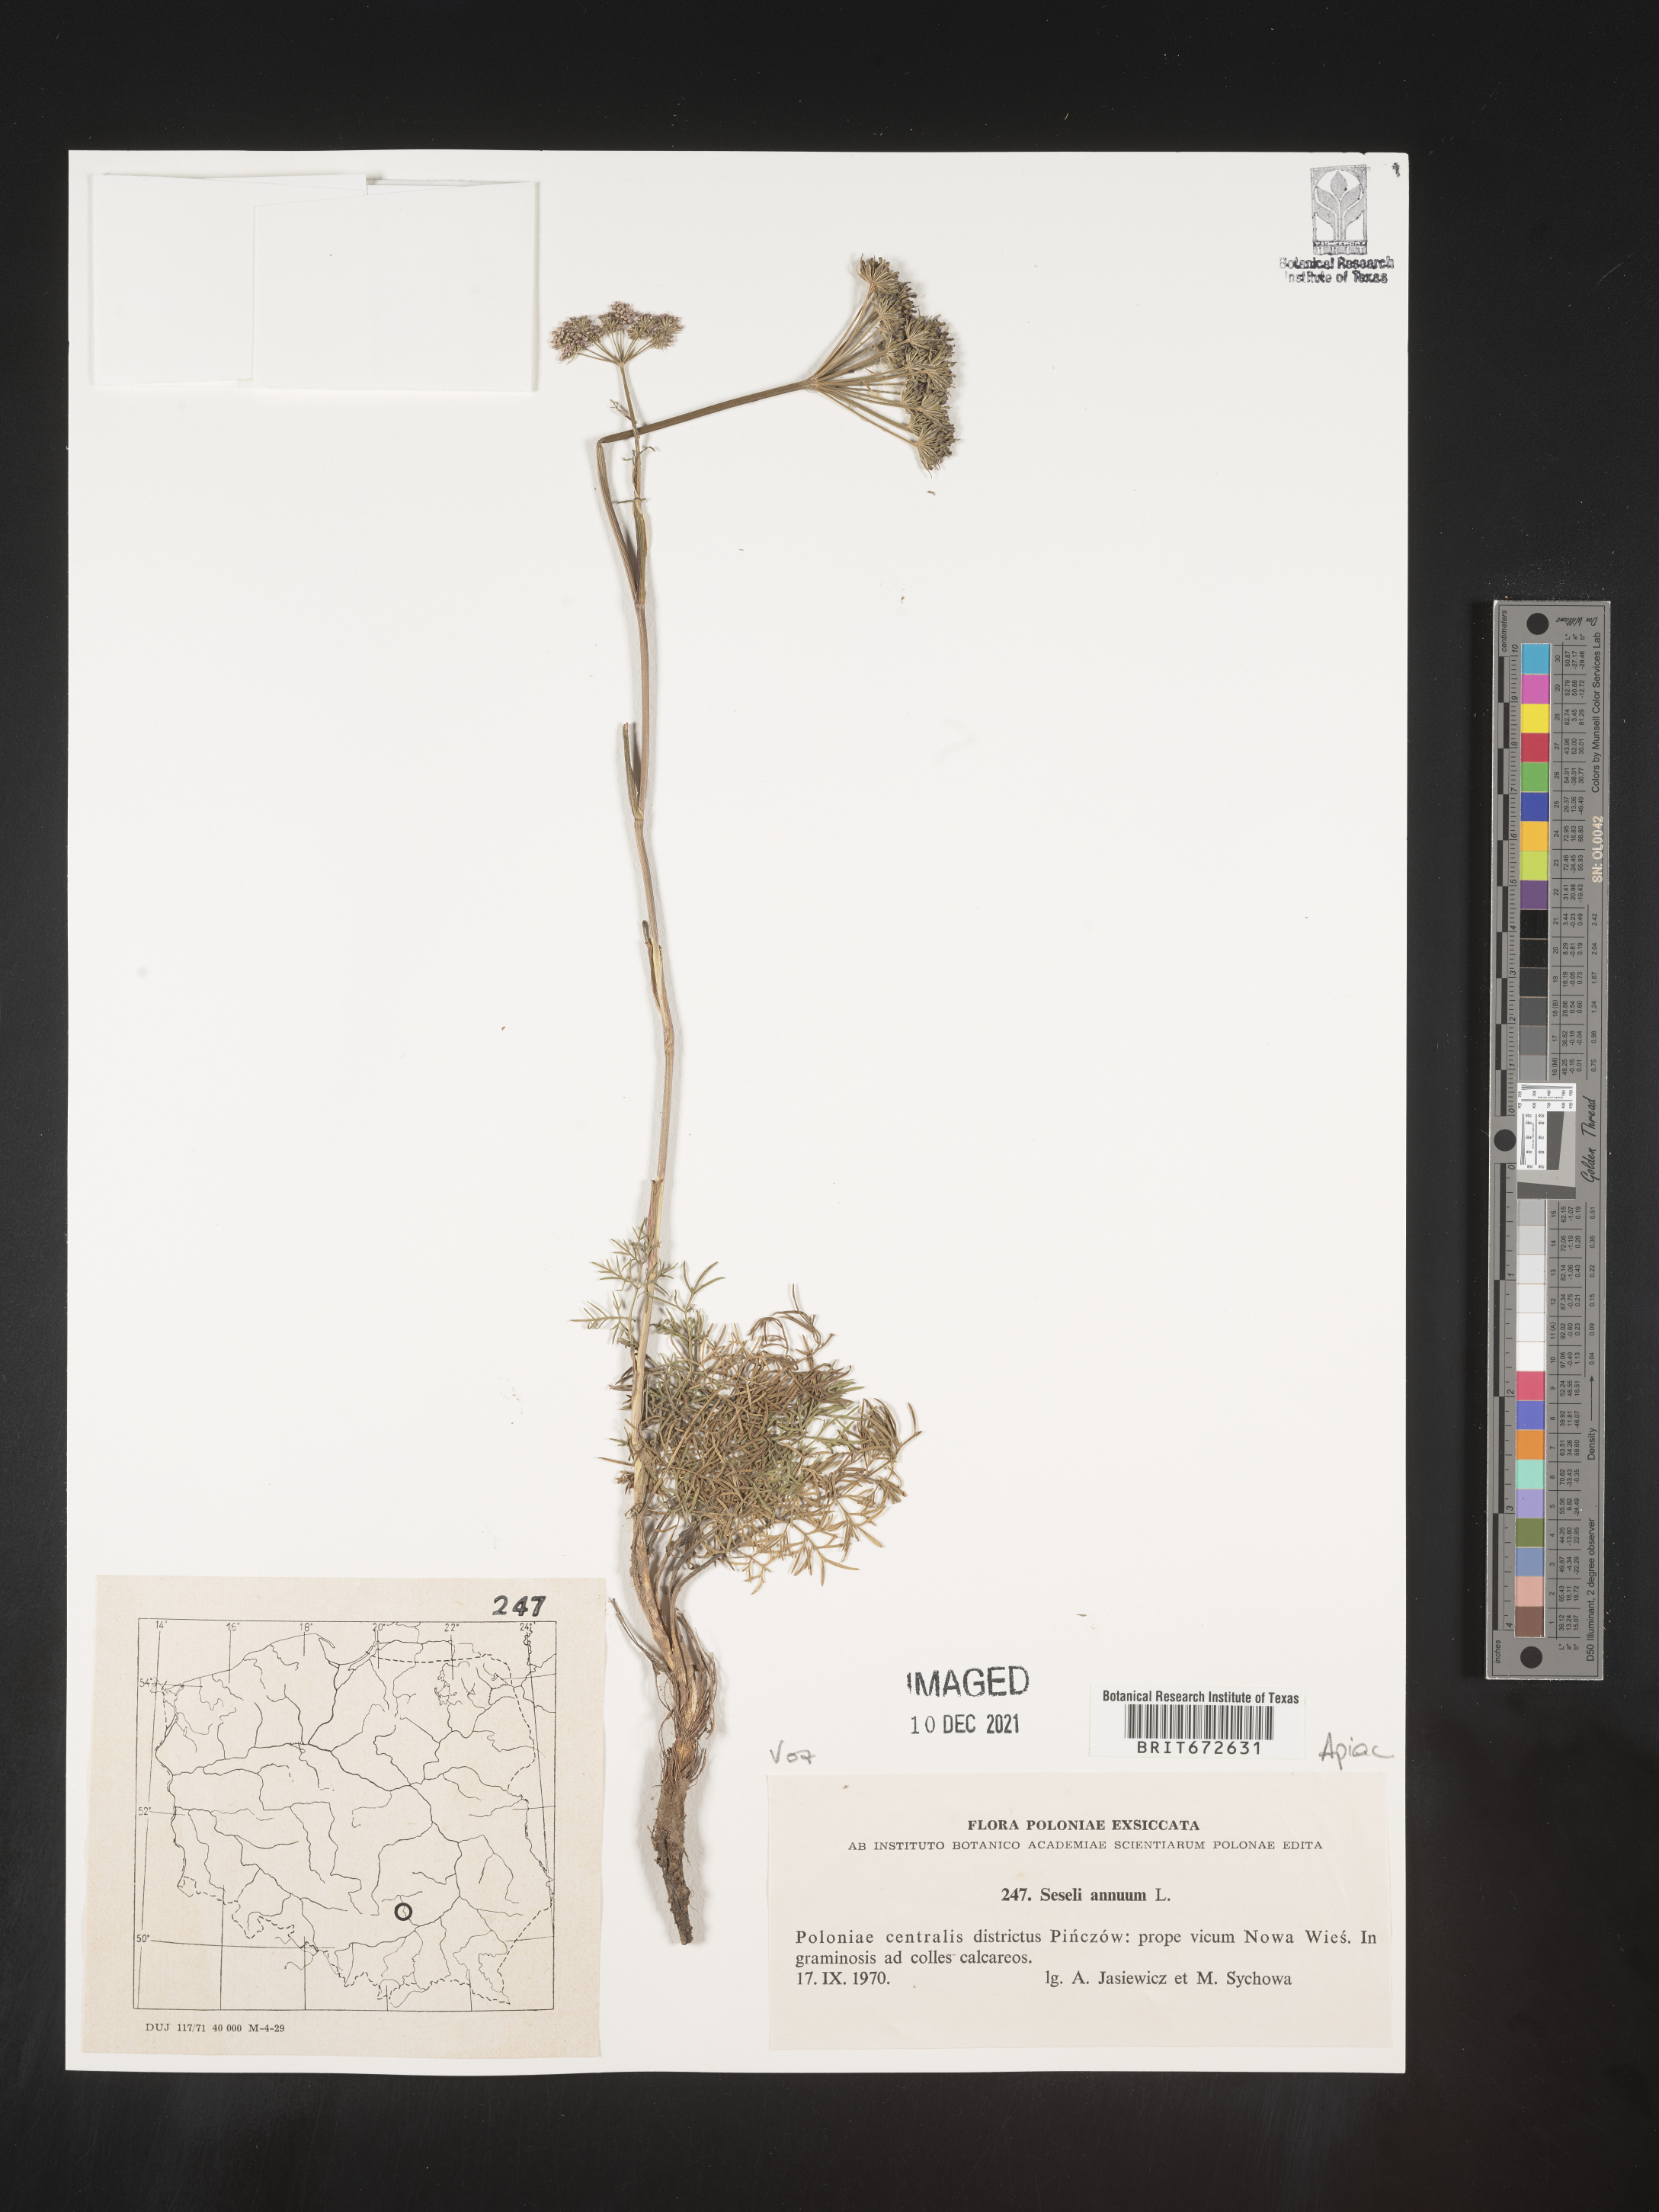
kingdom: Plantae
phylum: Tracheophyta
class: Magnoliopsida
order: Apiales
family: Apiaceae
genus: Seseli
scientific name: Seseli
